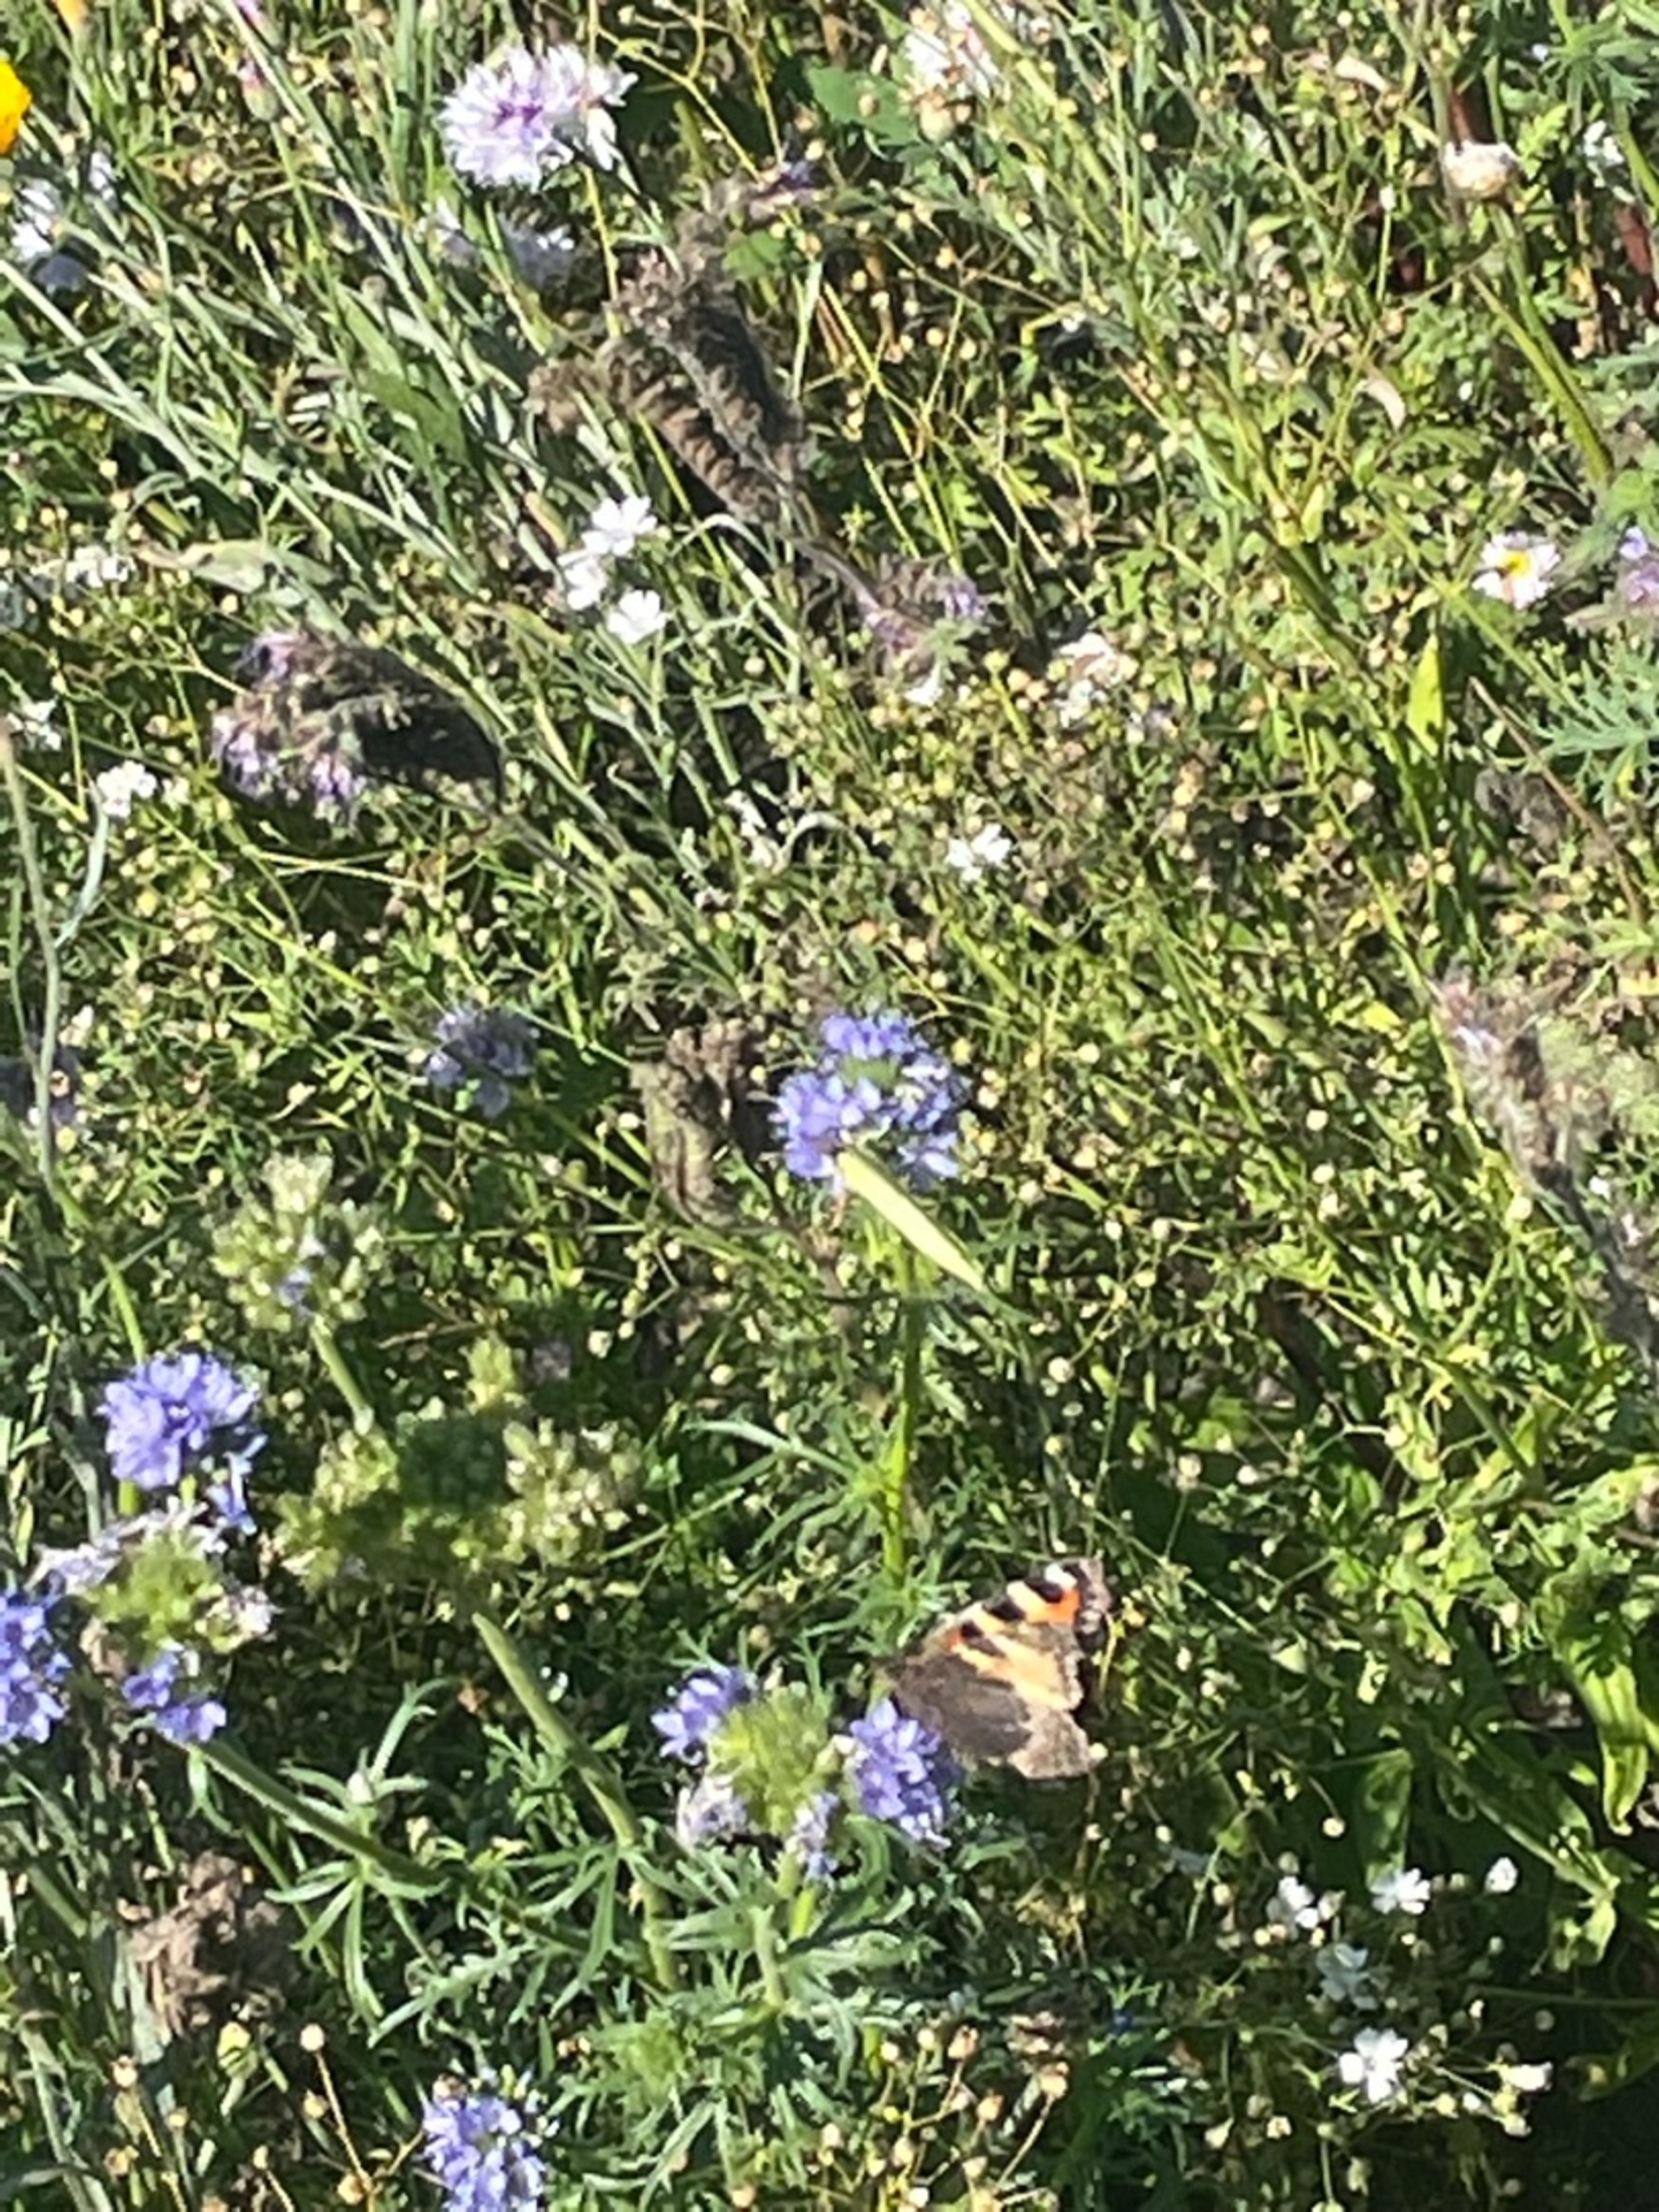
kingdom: Animalia
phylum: Arthropoda
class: Insecta
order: Lepidoptera
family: Pieridae
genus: Gonepteryx
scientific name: Gonepteryx rhamni
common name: Citronsommerfugl
